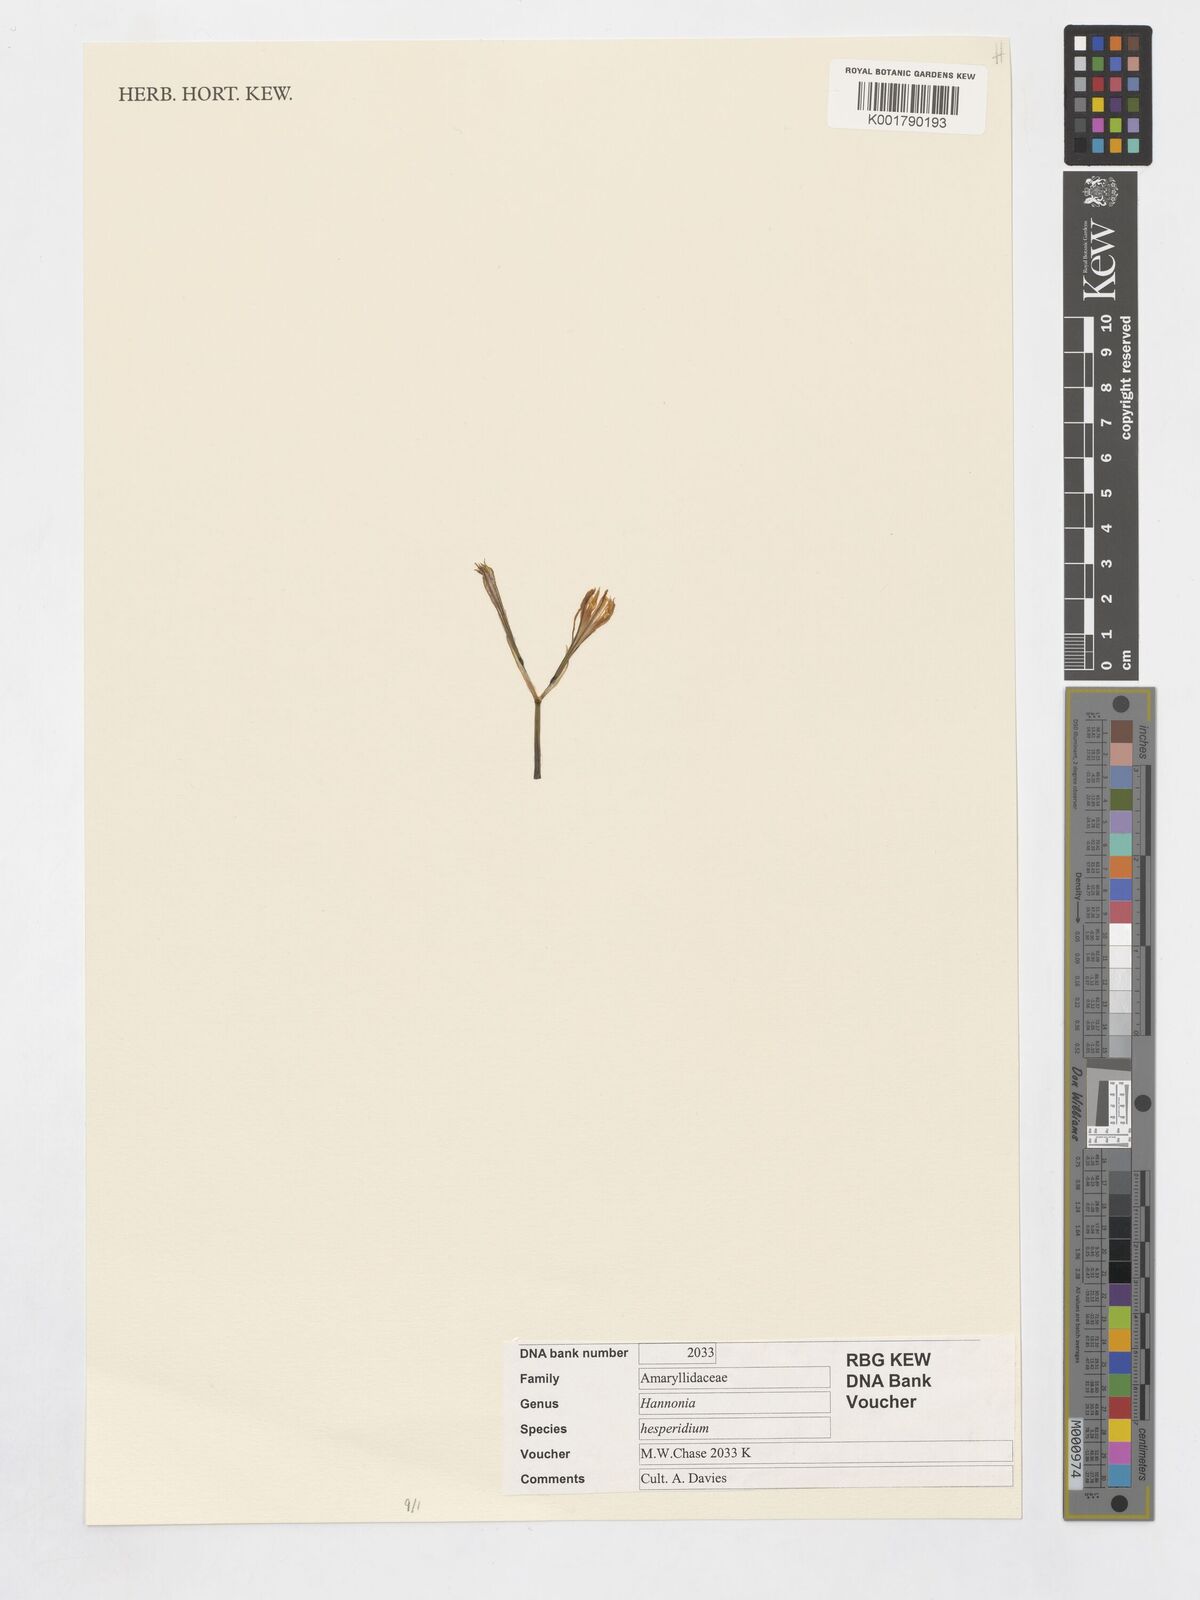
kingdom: Plantae
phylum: Tracheophyta
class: Liliopsida
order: Asparagales
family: Amaryllidaceae
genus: Hannonia
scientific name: Hannonia hesperidum
